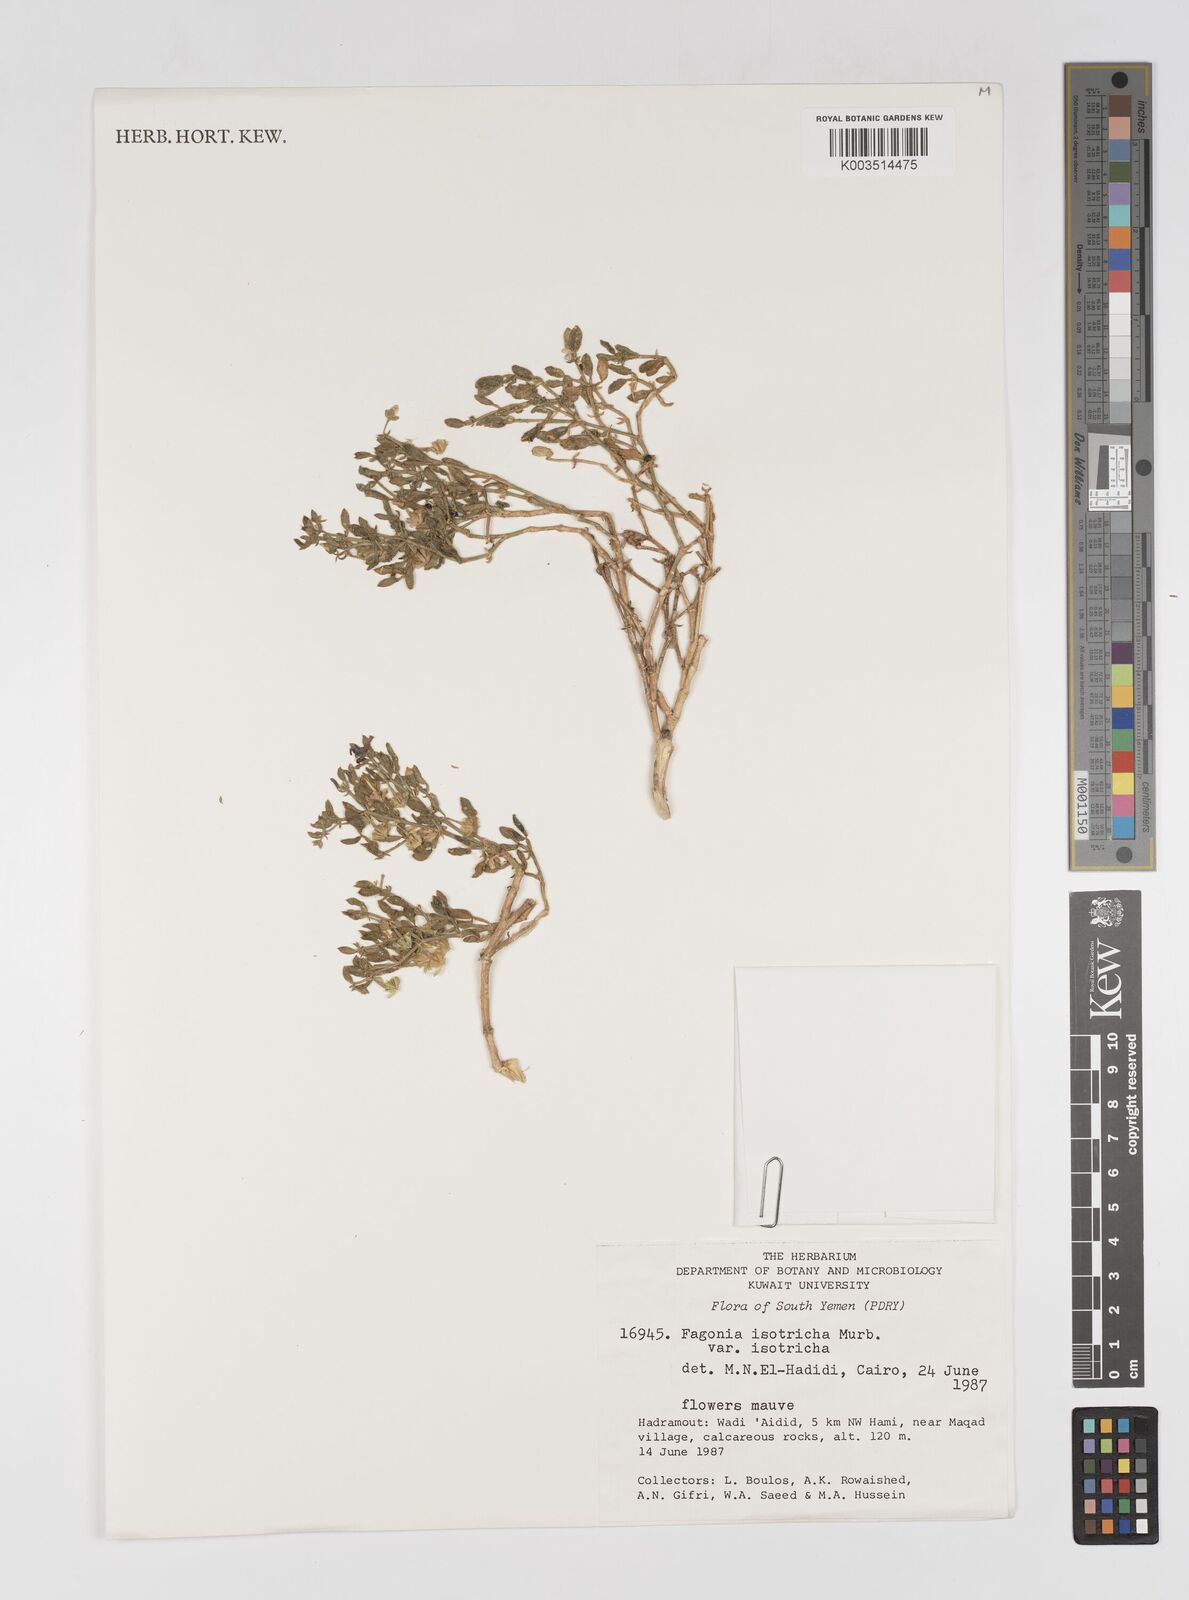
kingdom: Plantae
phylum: Tracheophyta
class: Magnoliopsida
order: Zygophyllales
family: Zygophyllaceae
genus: Fagonia
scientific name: Fagonia latifolia
